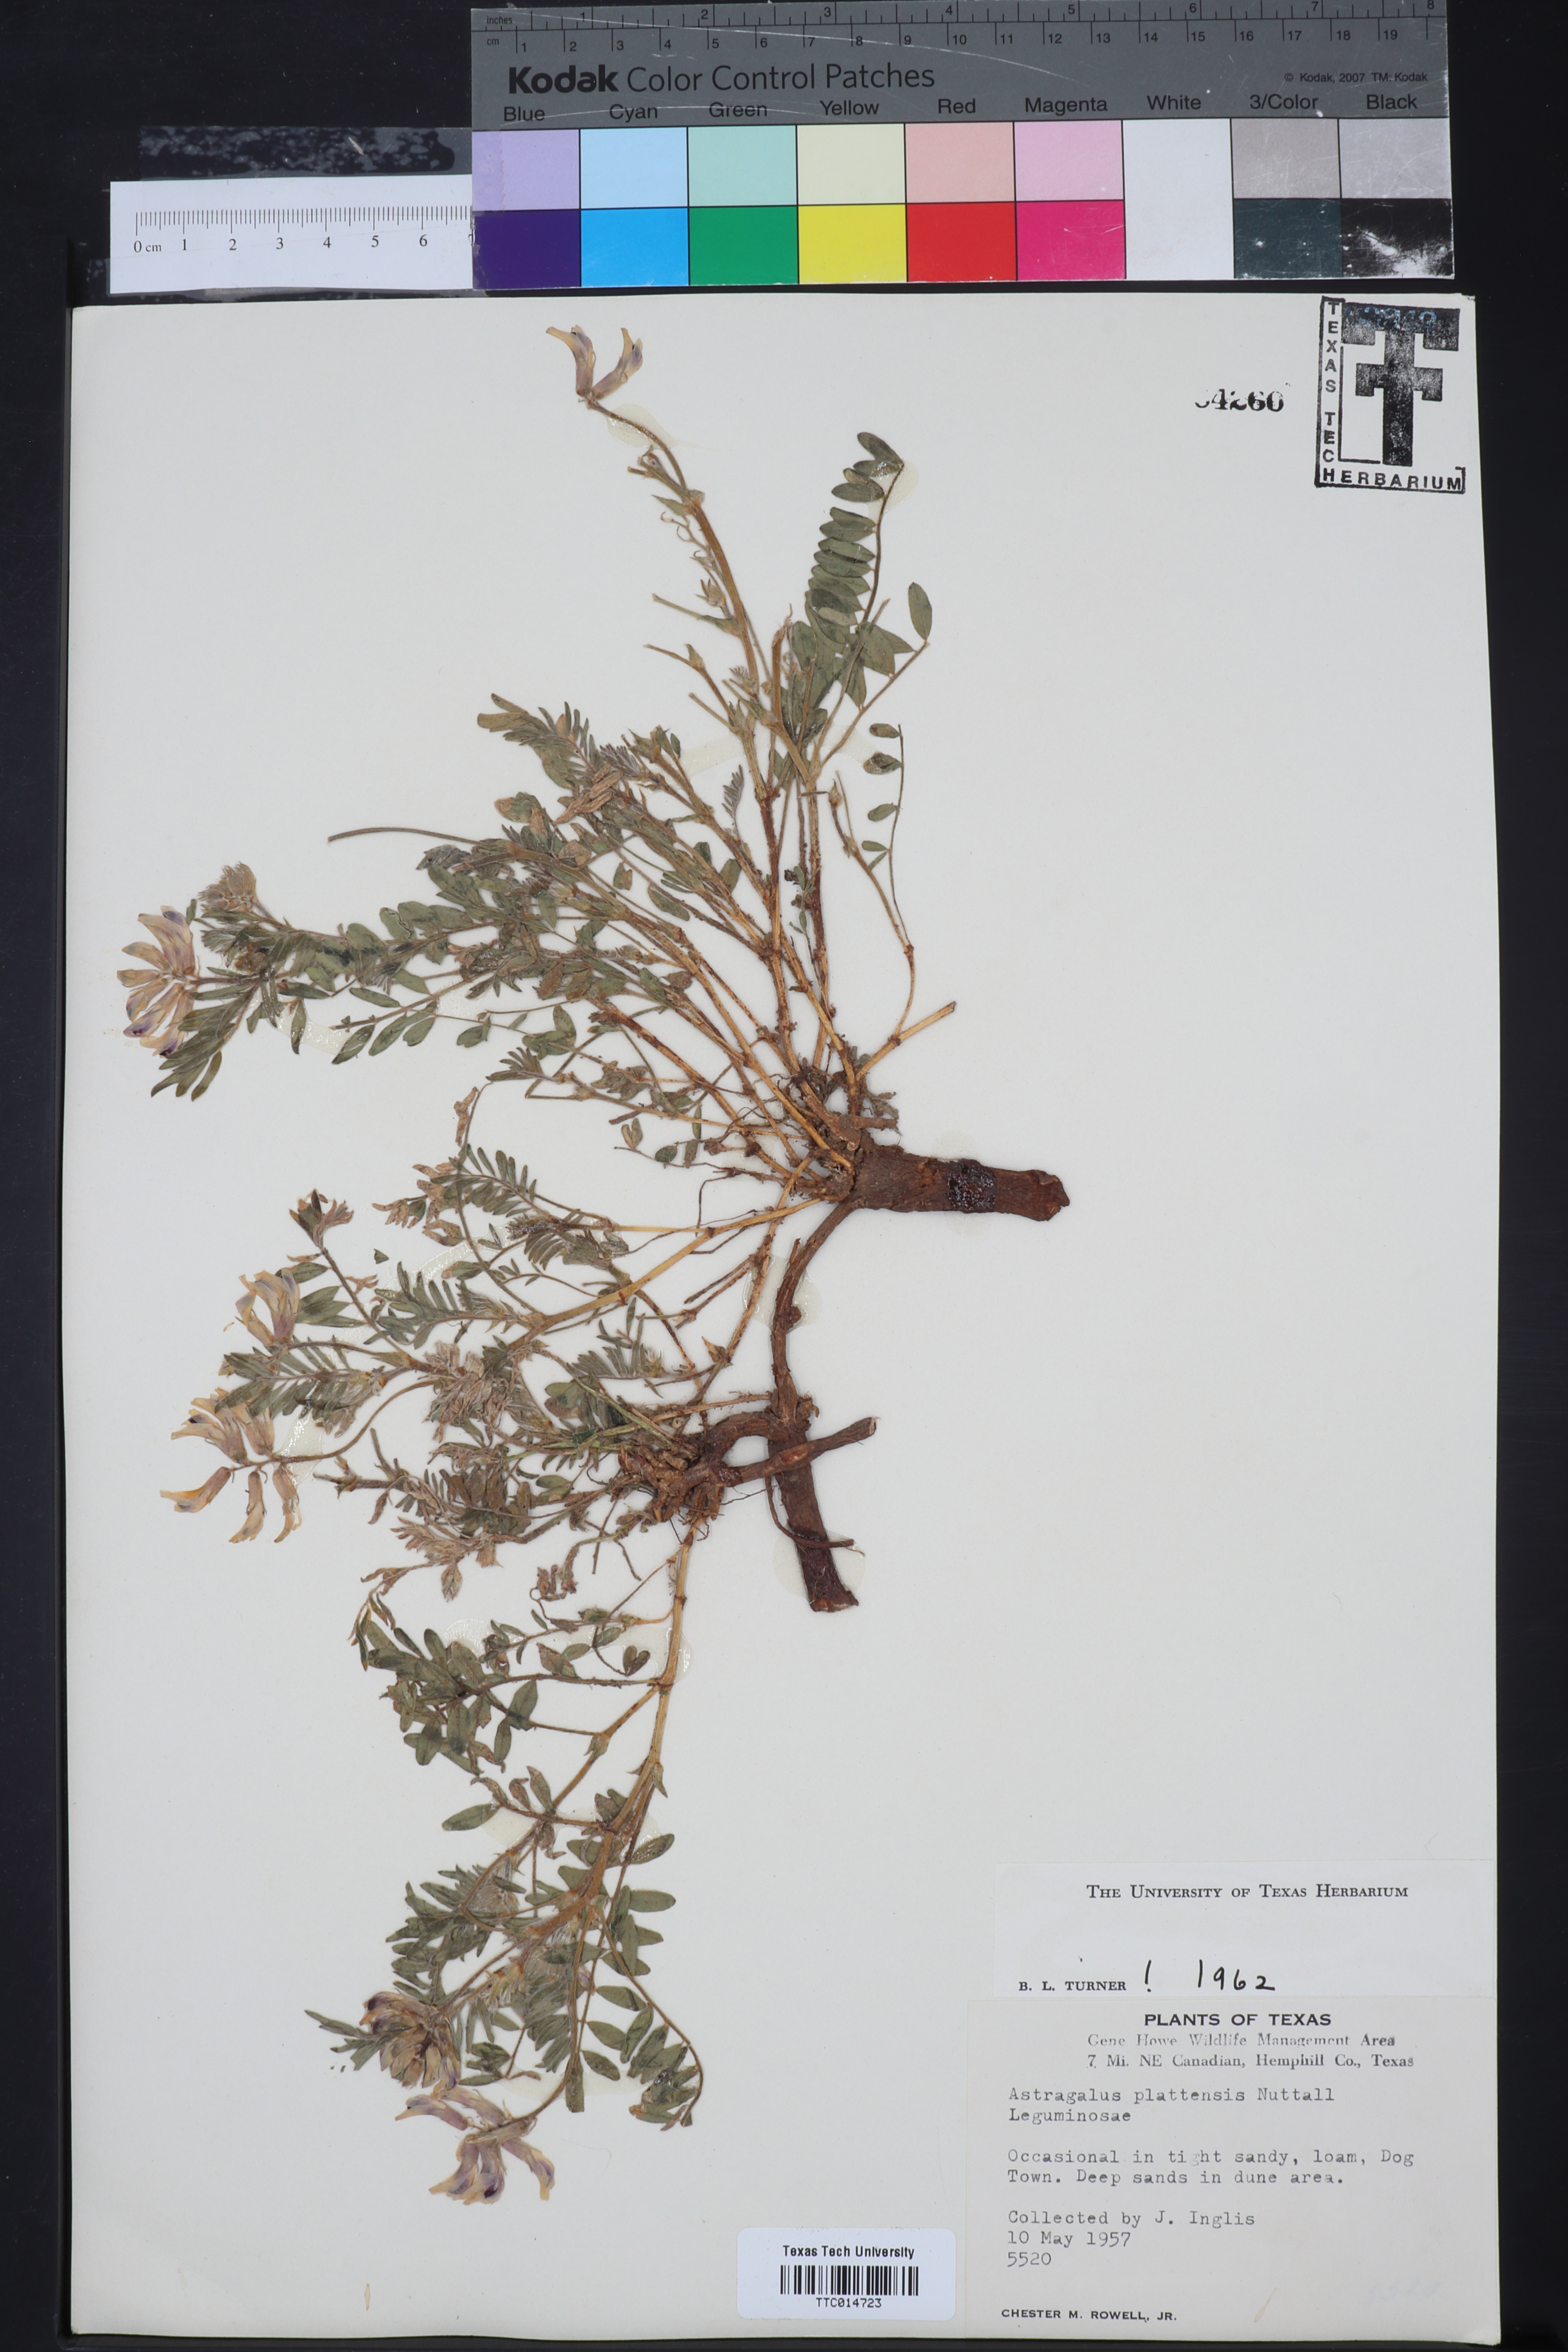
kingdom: Plantae
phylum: Tracheophyta
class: Magnoliopsida
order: Fabales
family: Fabaceae
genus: Astragalus
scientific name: Astragalus plattensis
